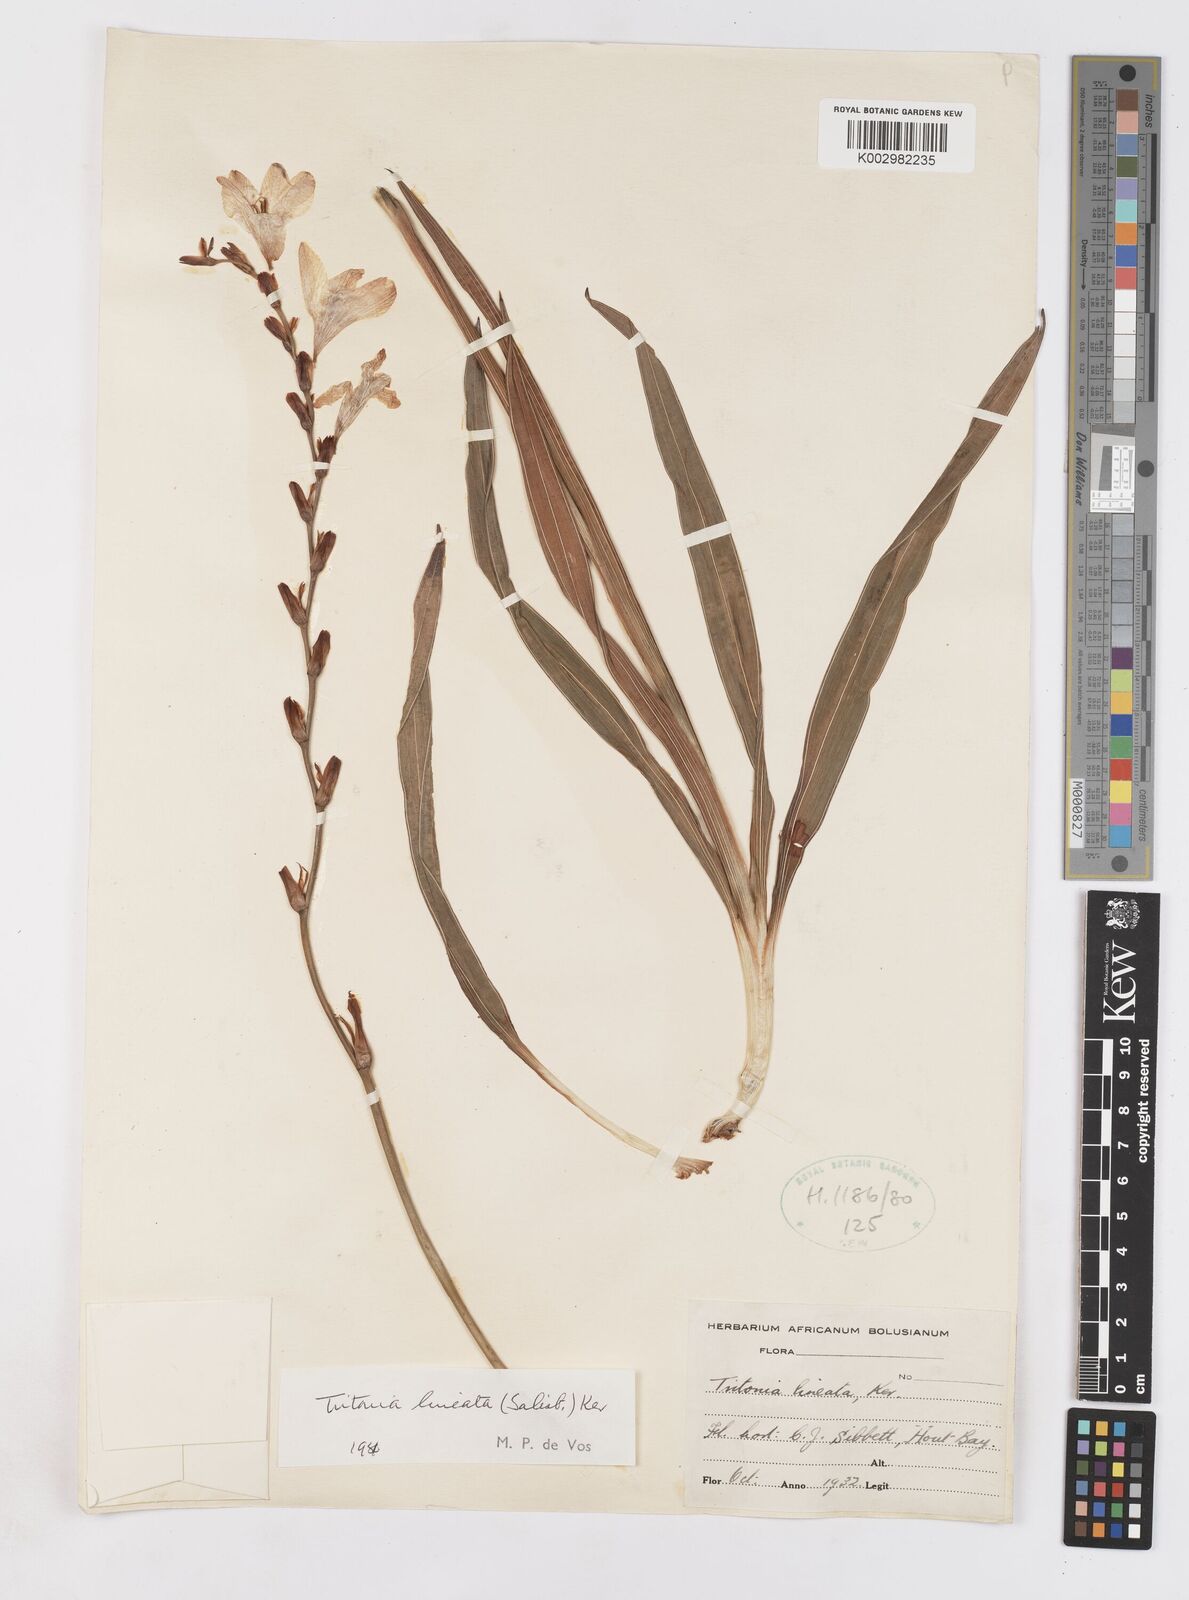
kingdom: Plantae
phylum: Tracheophyta
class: Liliopsida
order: Asparagales
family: Iridaceae
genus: Tritonia
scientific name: Tritonia gladiolaris
